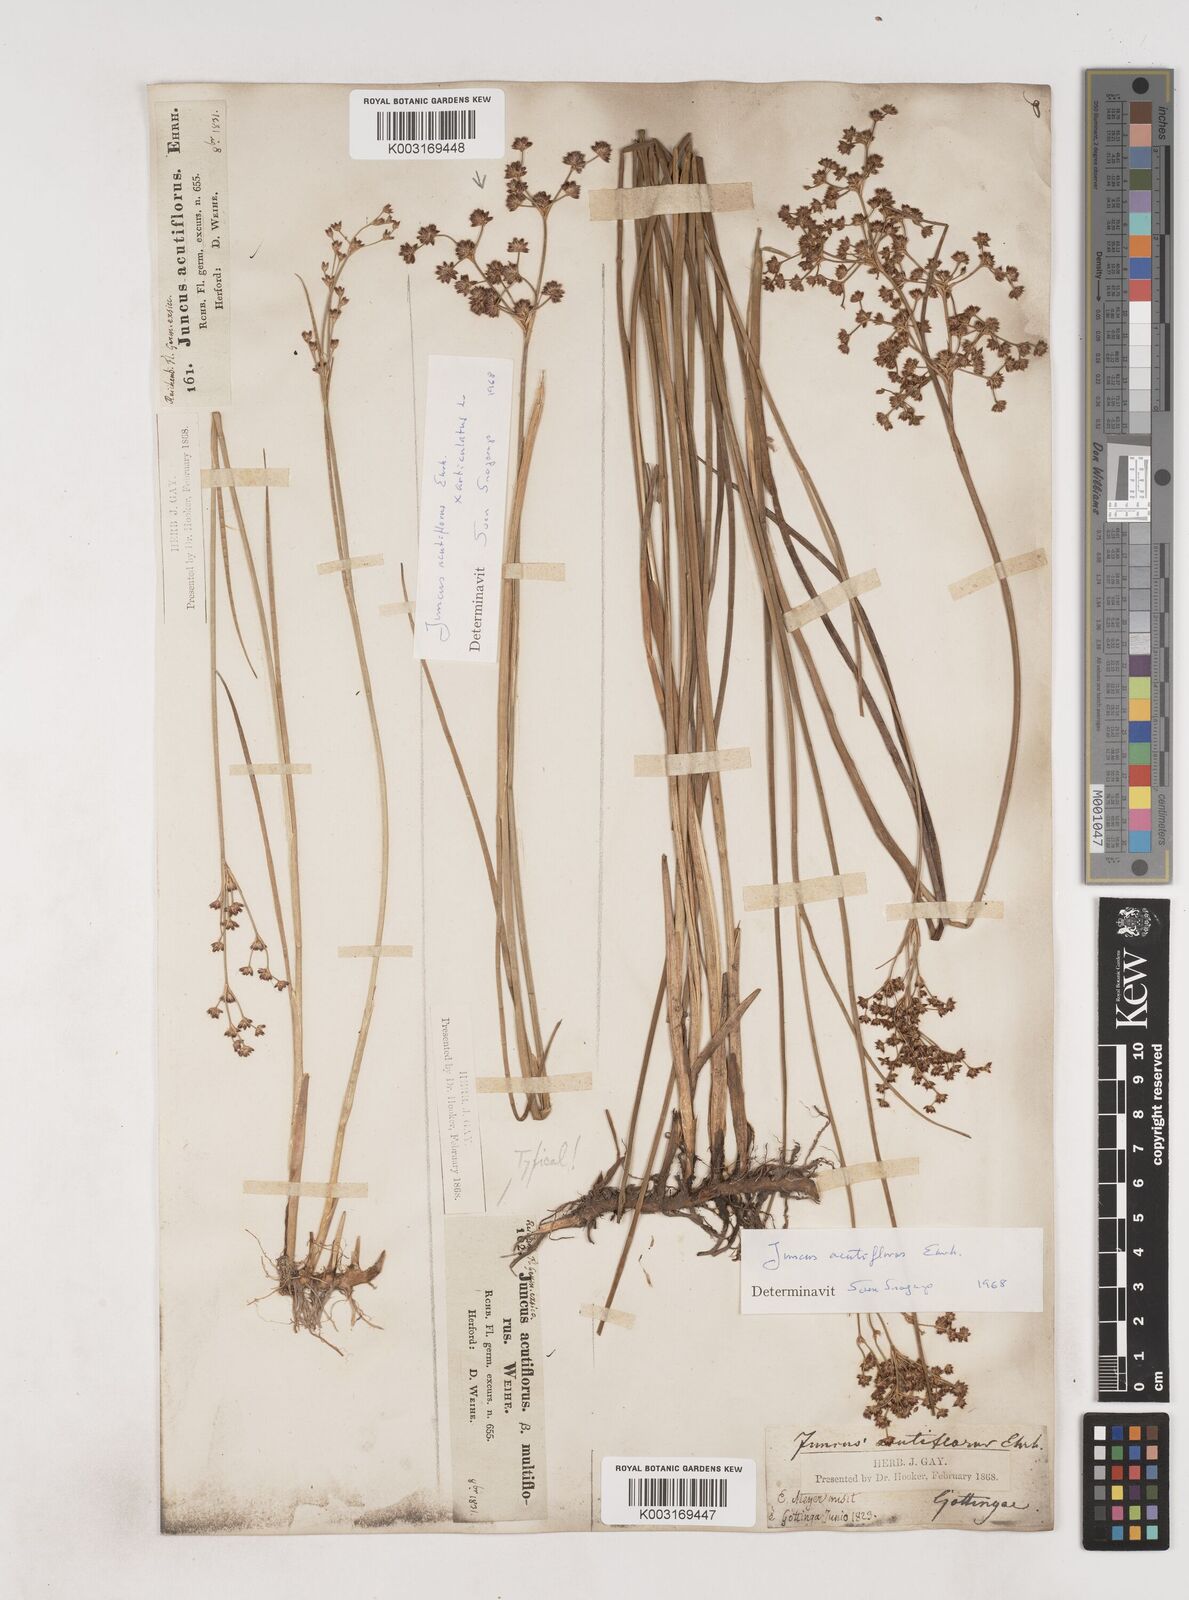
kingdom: Plantae
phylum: Tracheophyta
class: Liliopsida
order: Poales
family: Juncaceae
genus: Juncus
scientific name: Juncus acutiflorus
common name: Sharp-flowered rush
